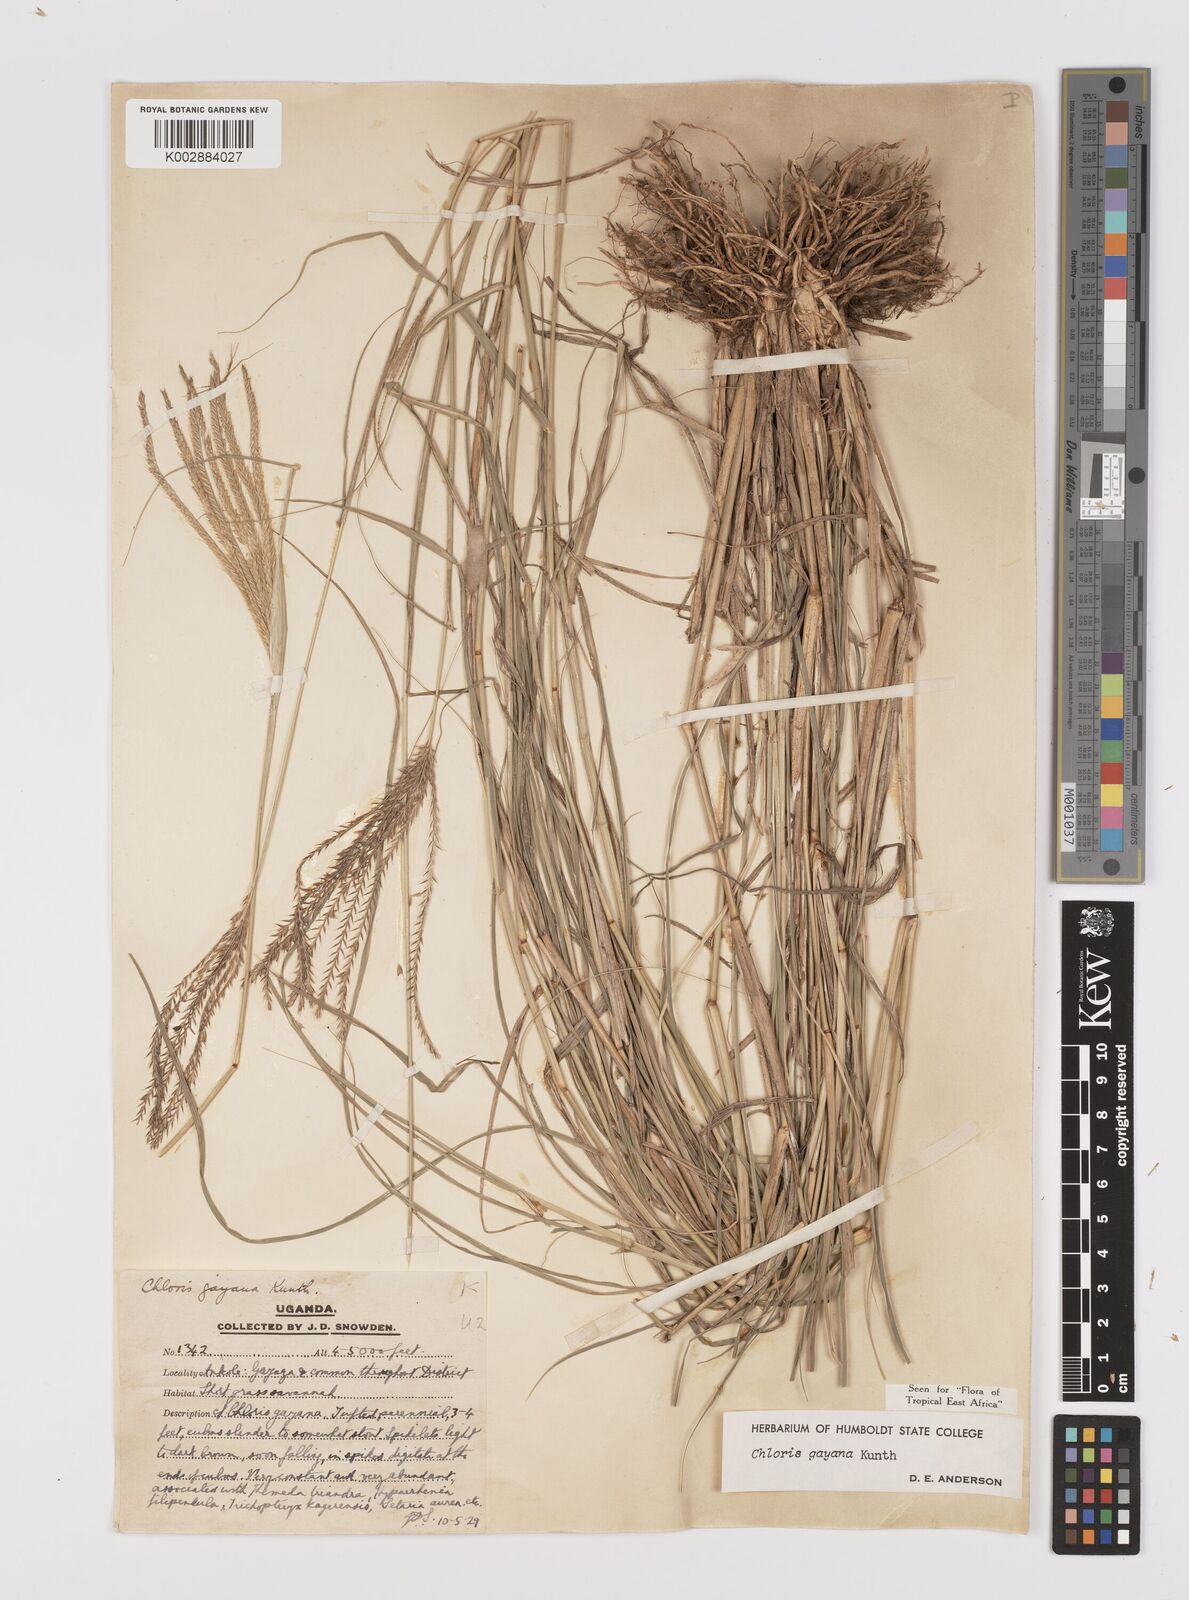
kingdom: Plantae
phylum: Tracheophyta
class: Liliopsida
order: Poales
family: Poaceae
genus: Chloris
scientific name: Chloris gayana
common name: Rhodes grass
